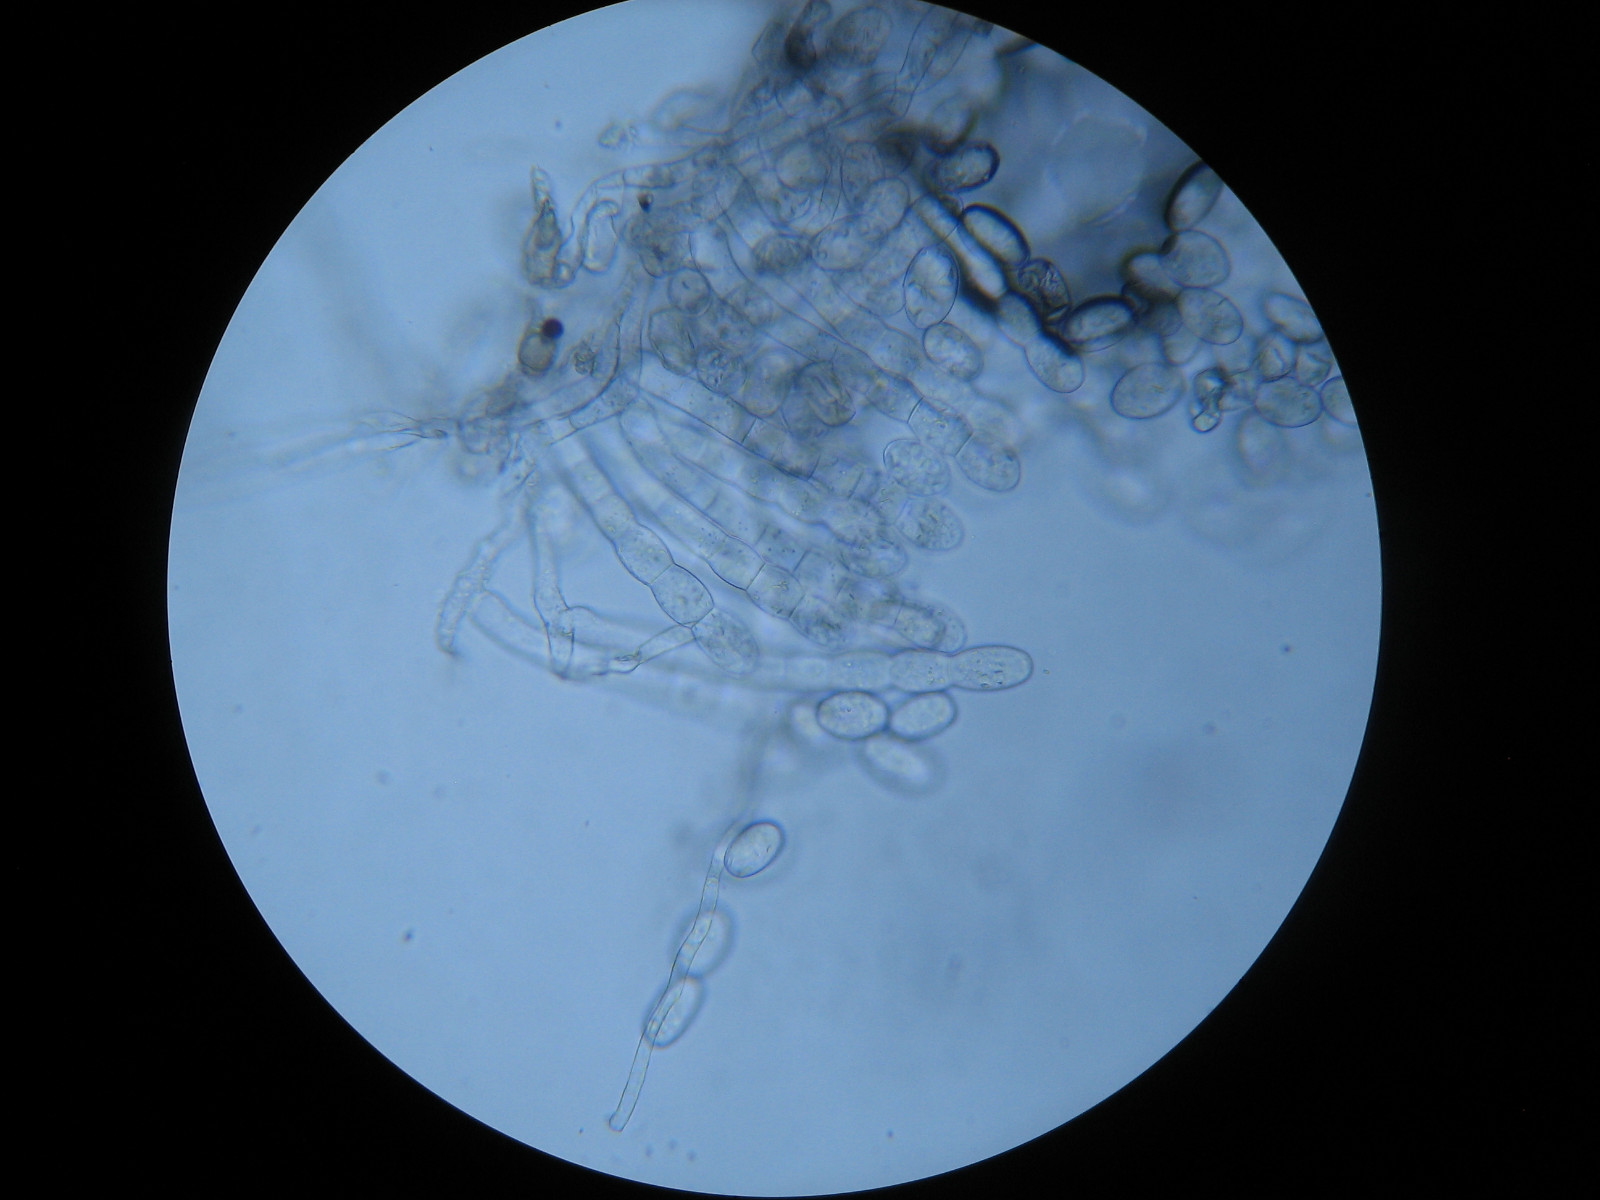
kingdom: Fungi
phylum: Ascomycota
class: Leotiomycetes
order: Helotiales
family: Erysiphaceae
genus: Podosphaera
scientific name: Podosphaera erigerontis-canadensis
